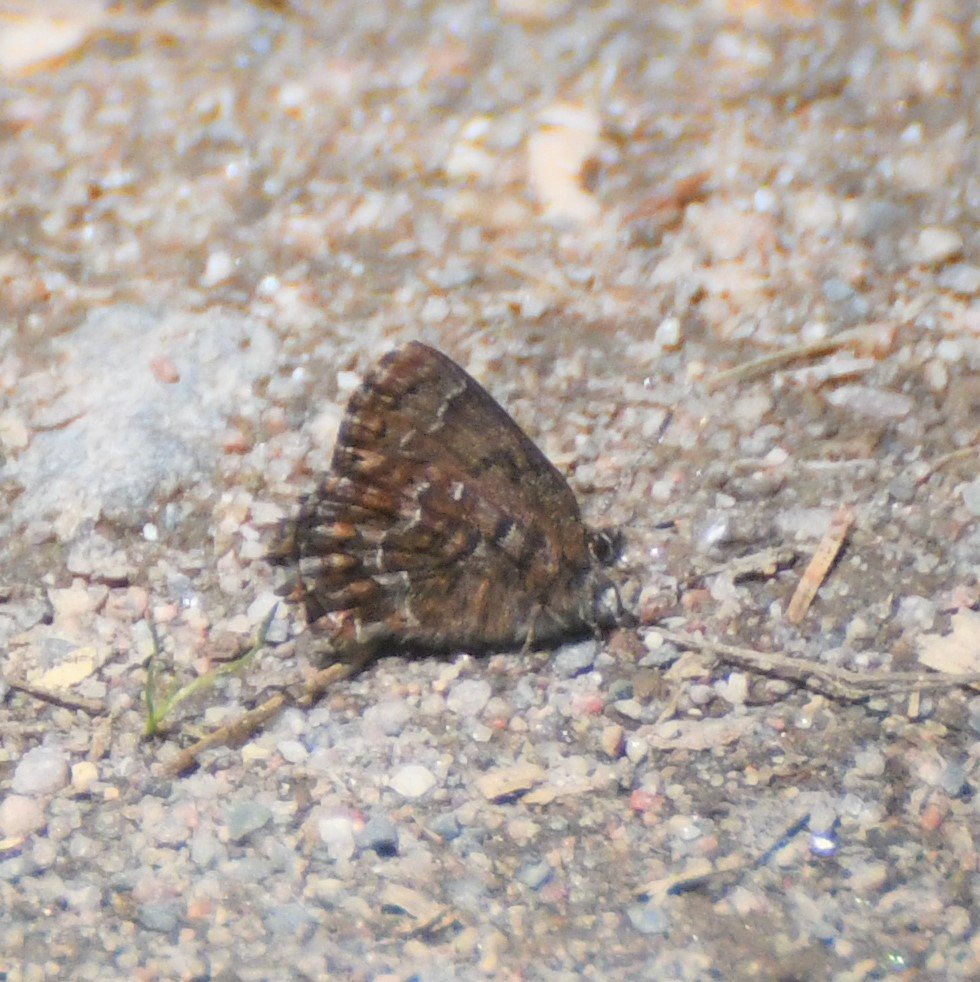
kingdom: Animalia
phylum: Arthropoda
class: Insecta
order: Lepidoptera
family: Lycaenidae
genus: Incisalia
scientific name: Incisalia niphon
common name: Eastern Pine Elfin
